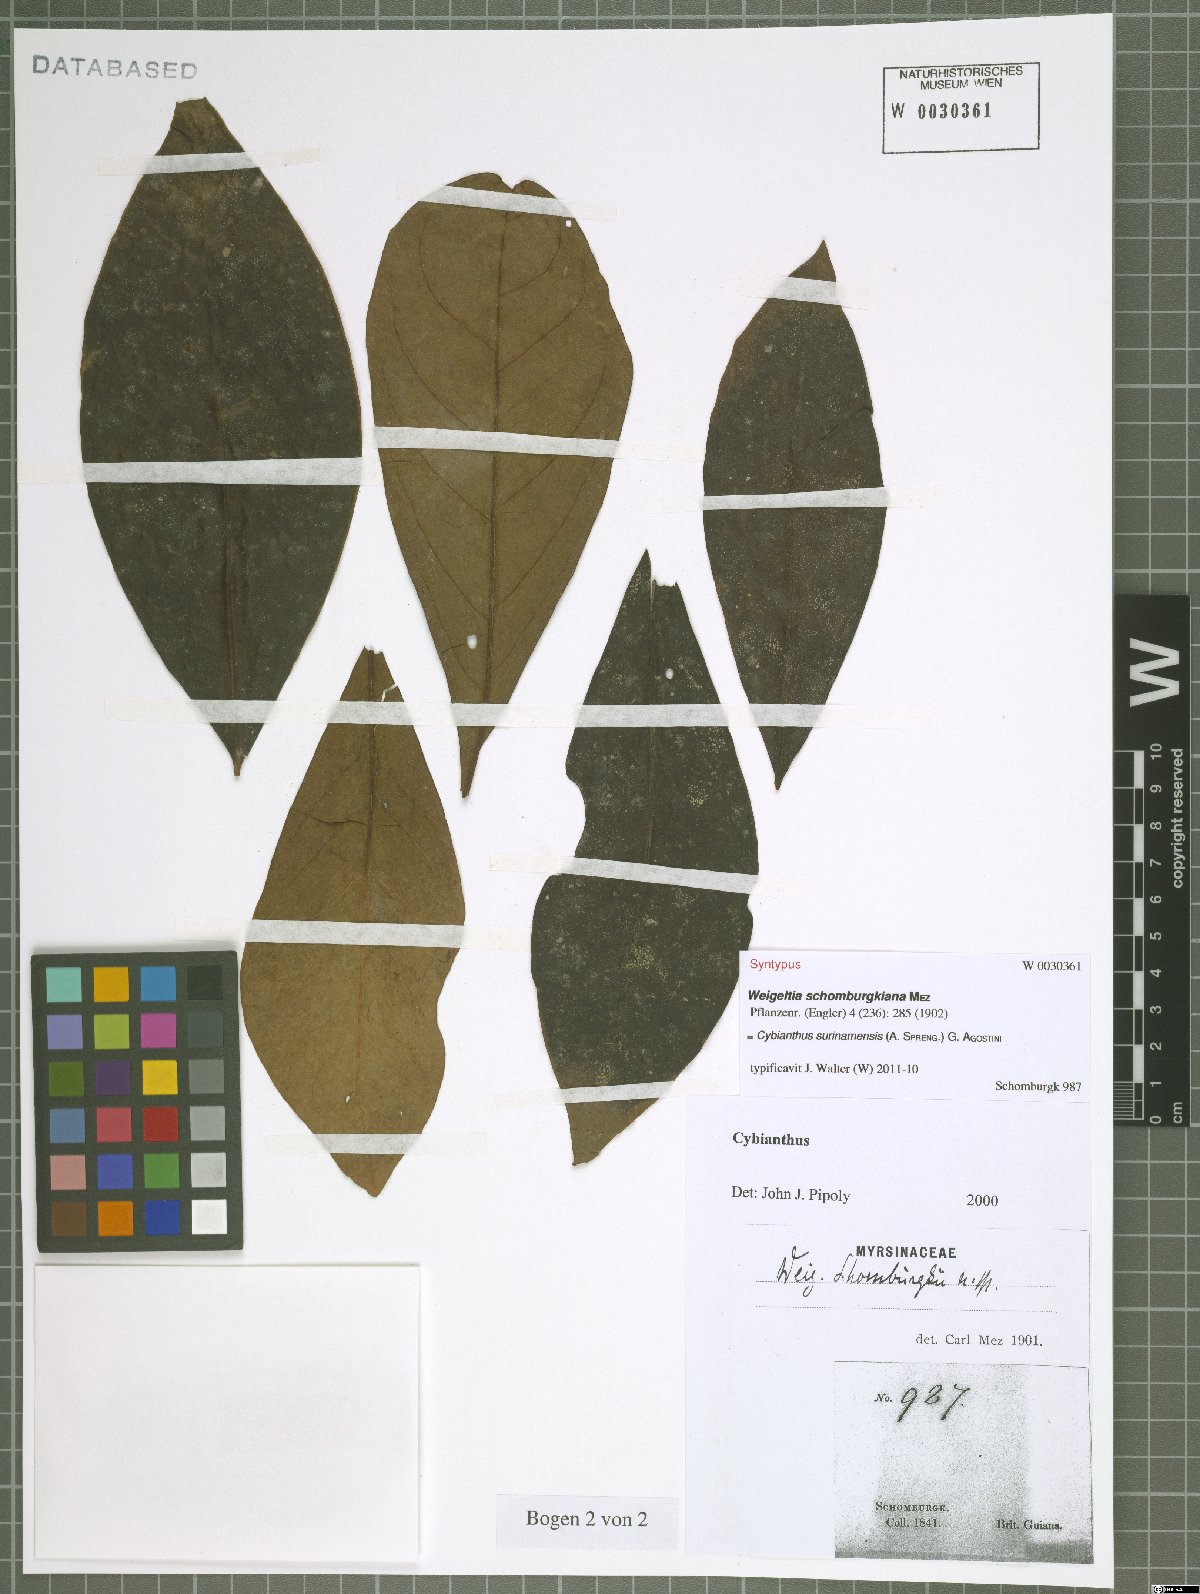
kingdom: Plantae
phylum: Tracheophyta
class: Magnoliopsida
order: Ericales
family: Primulaceae
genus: Cybianthus
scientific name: Cybianthus surinamensis
